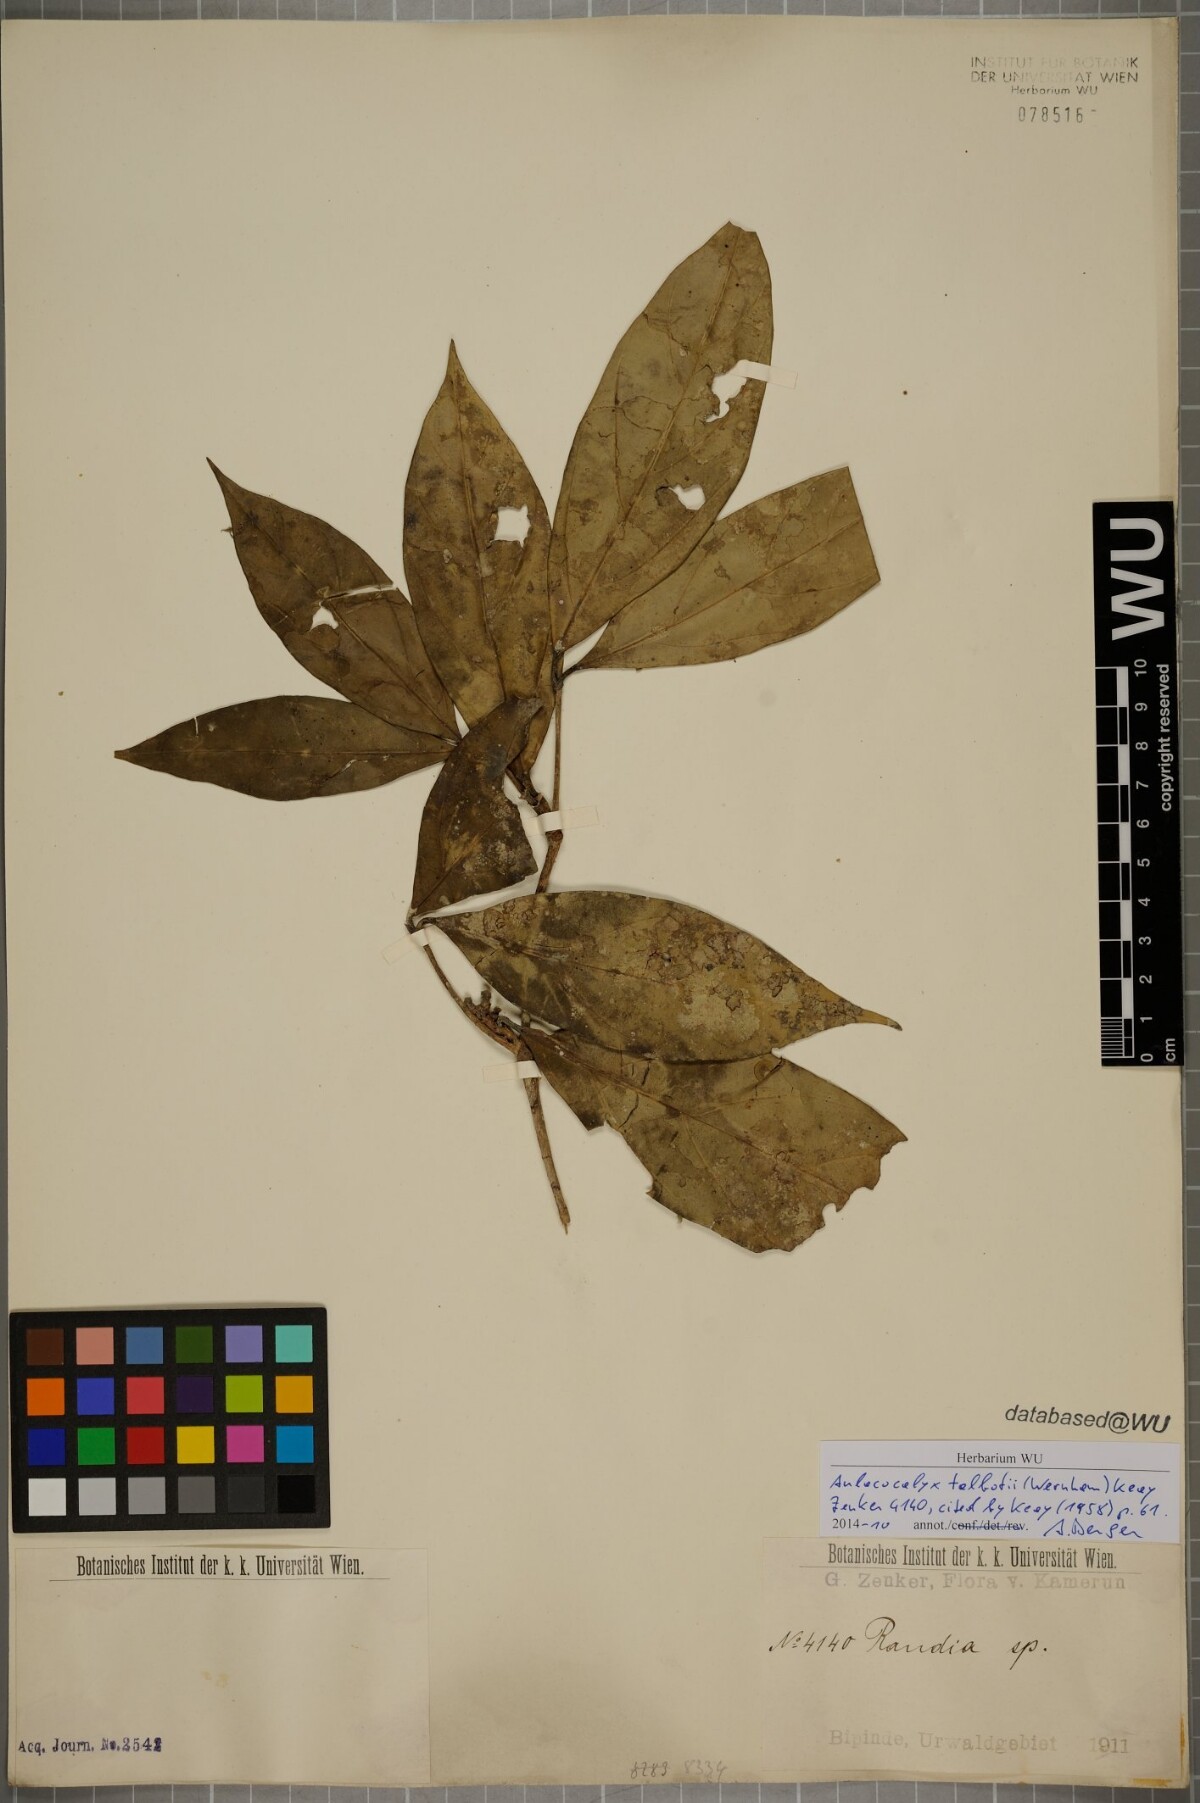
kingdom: Plantae
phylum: Tracheophyta
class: Magnoliopsida
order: Gentianales
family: Rubiaceae
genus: Aulacocalyx
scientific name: Aulacocalyx talbotii
